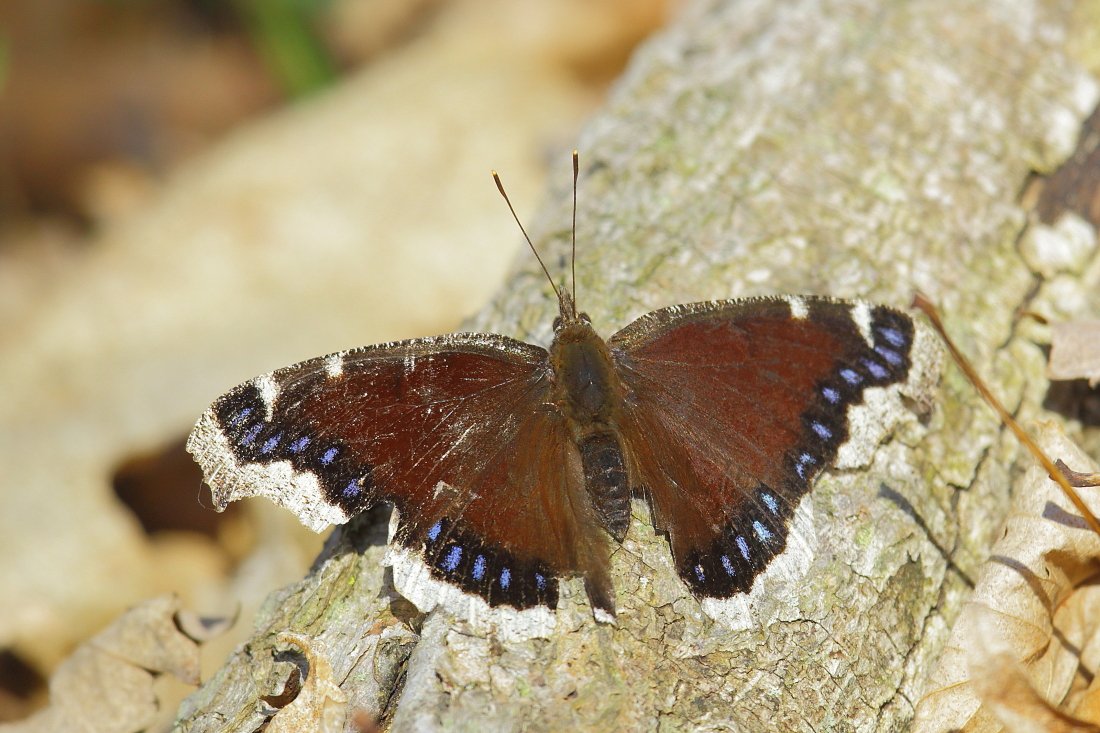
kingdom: Animalia
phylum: Arthropoda
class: Insecta
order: Lepidoptera
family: Nymphalidae
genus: Nymphalis
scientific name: Nymphalis antiopa
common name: Mourning Cloak
